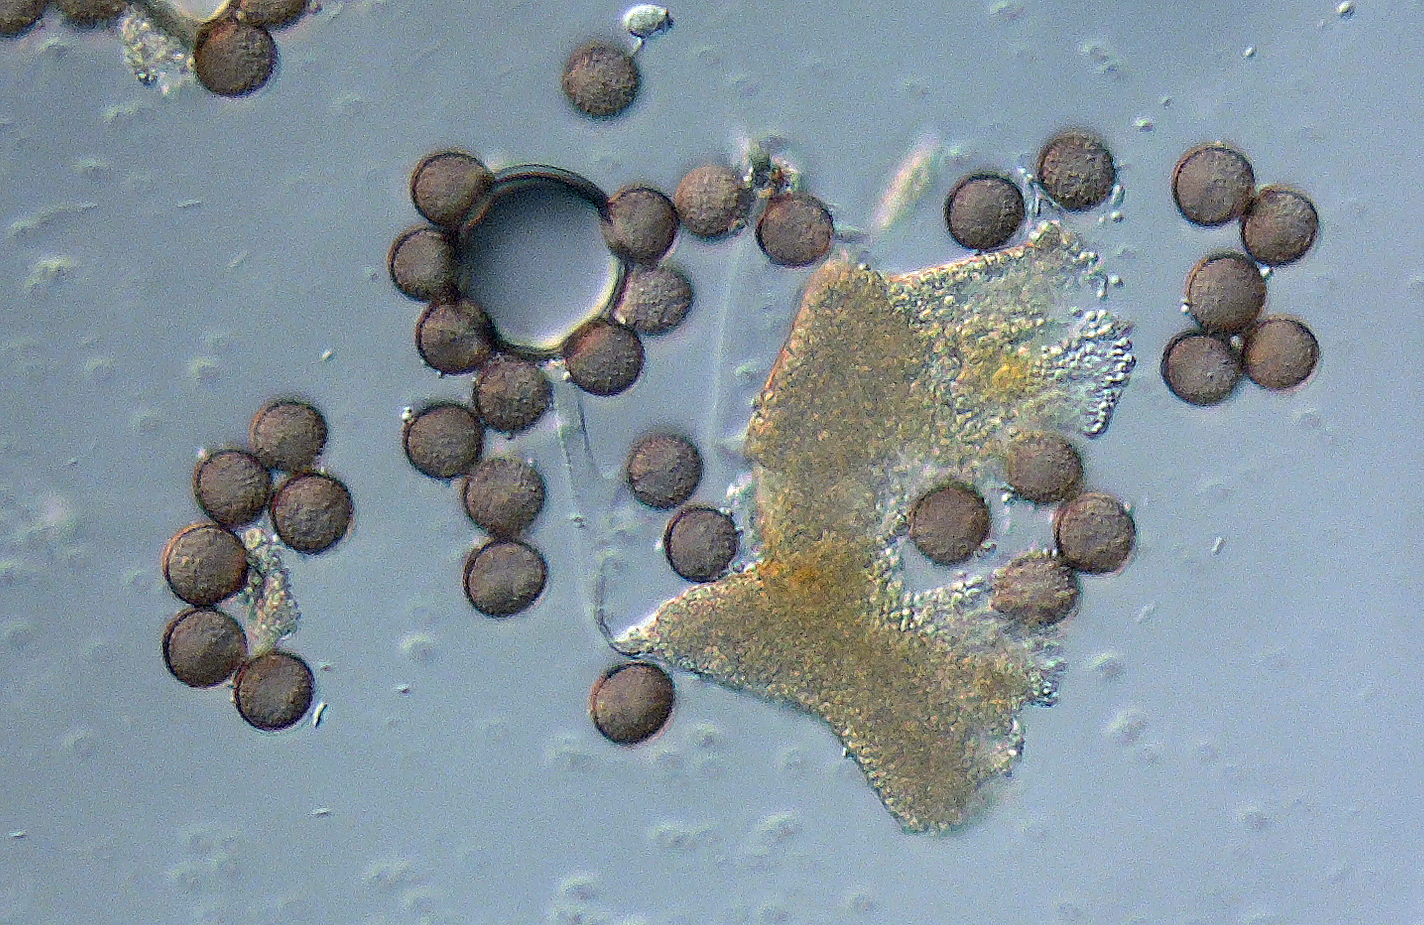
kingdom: Protozoa
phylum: Mycetozoa
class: Myxomycetes
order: Physarales
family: Physaraceae
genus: Craterium
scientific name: Craterium
